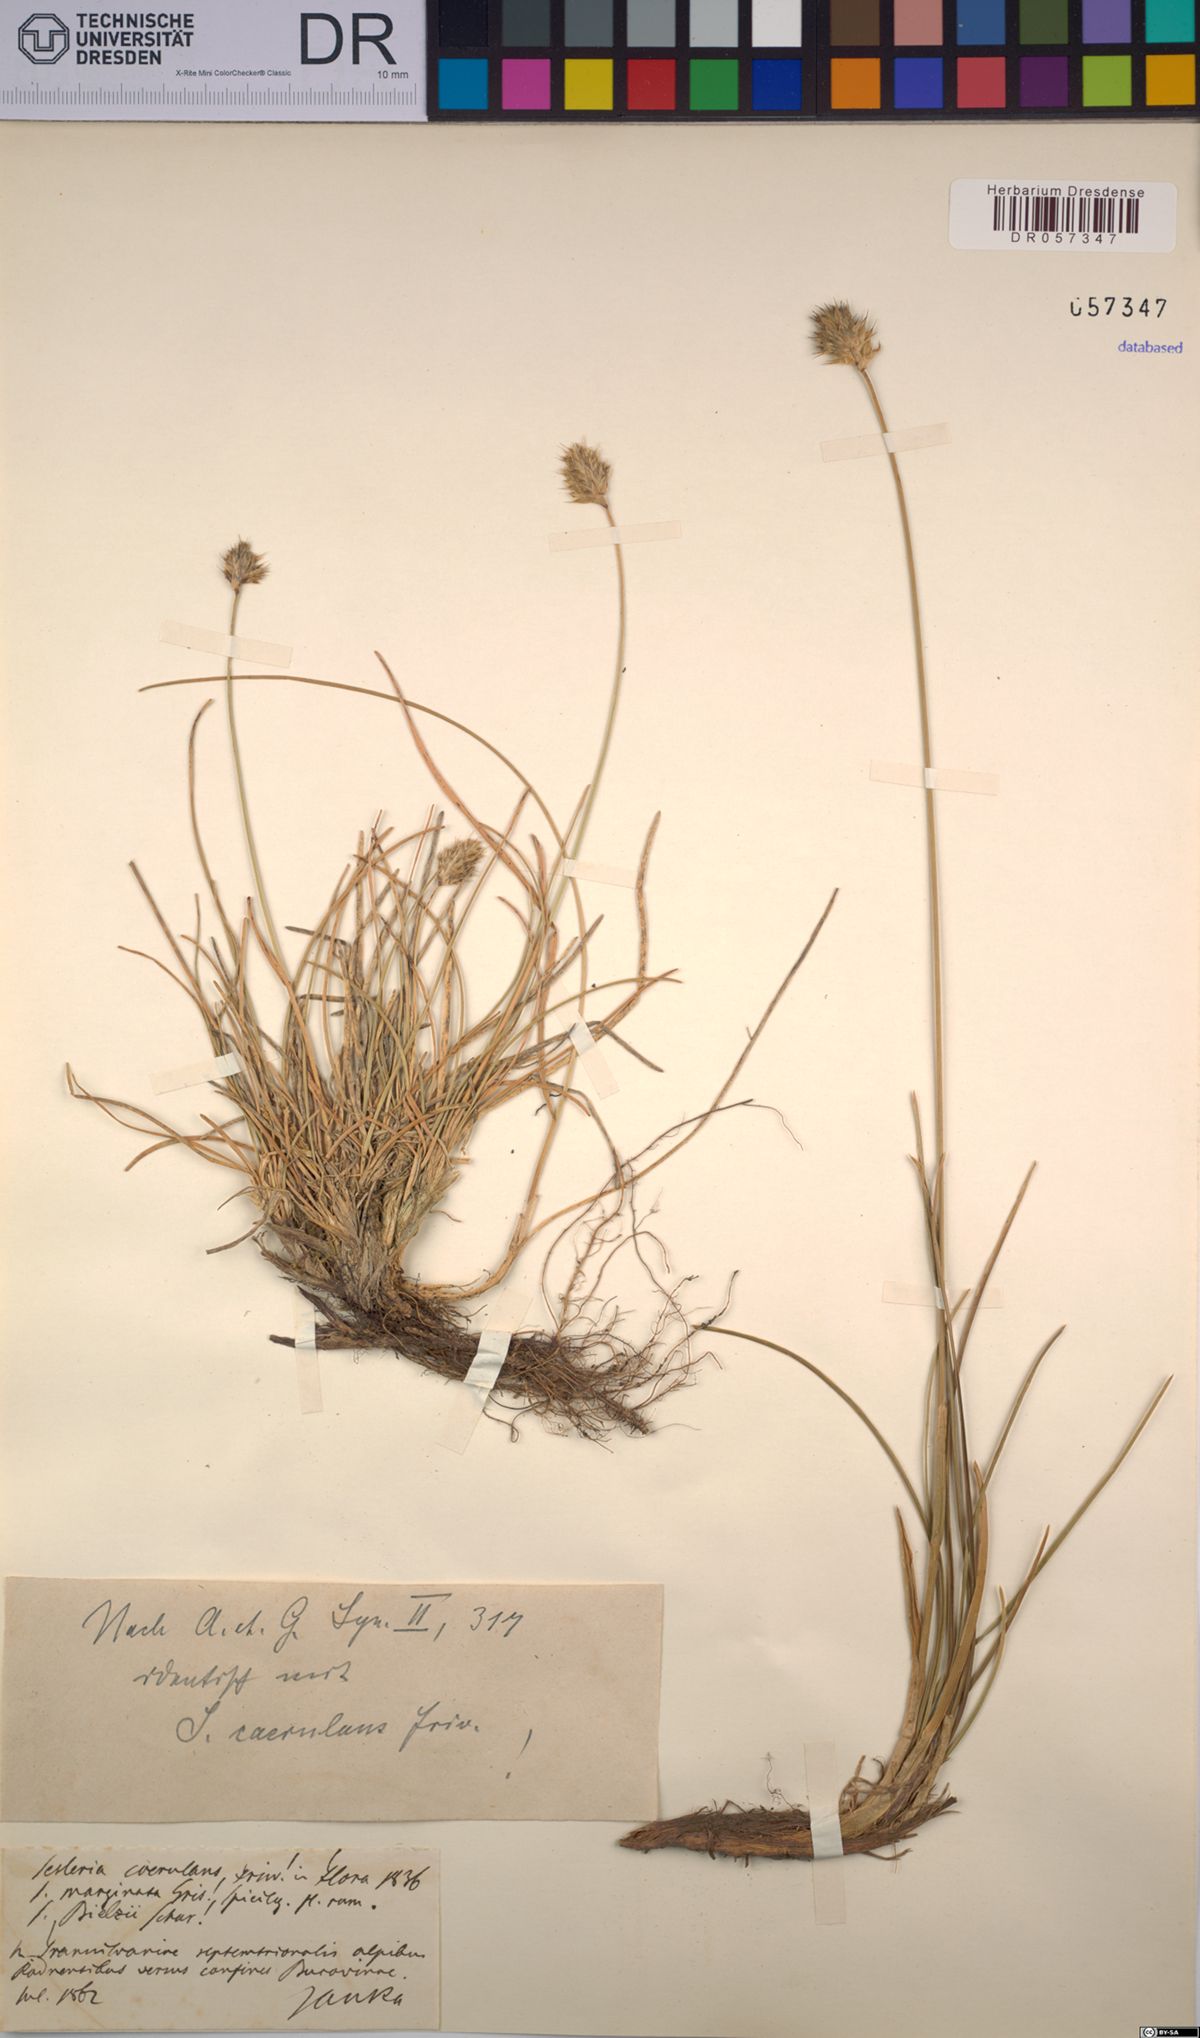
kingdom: Plantae
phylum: Tracheophyta
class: Liliopsida
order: Poales
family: Poaceae
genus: Sesleria
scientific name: Sesleria coerulans
